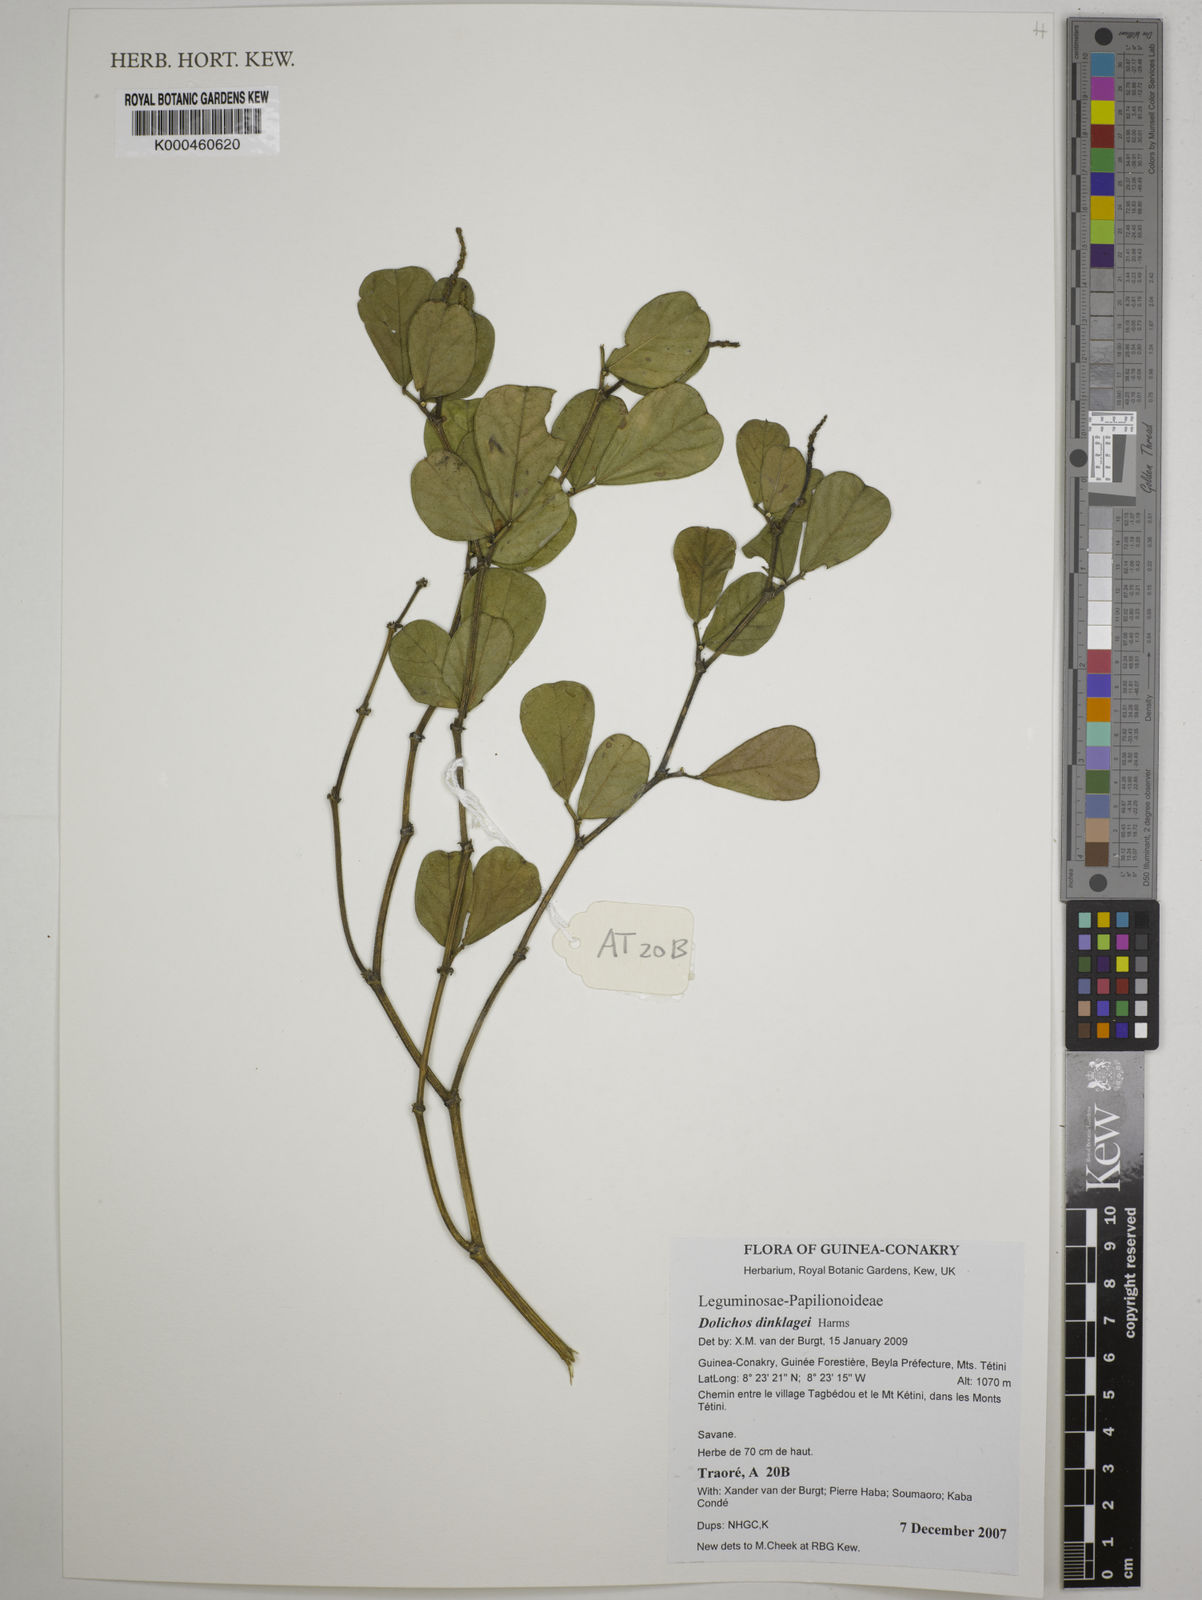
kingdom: Plantae
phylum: Tracheophyta
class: Magnoliopsida
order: Fabales
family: Fabaceae
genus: Dolichos
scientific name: Dolichos dinklagei
